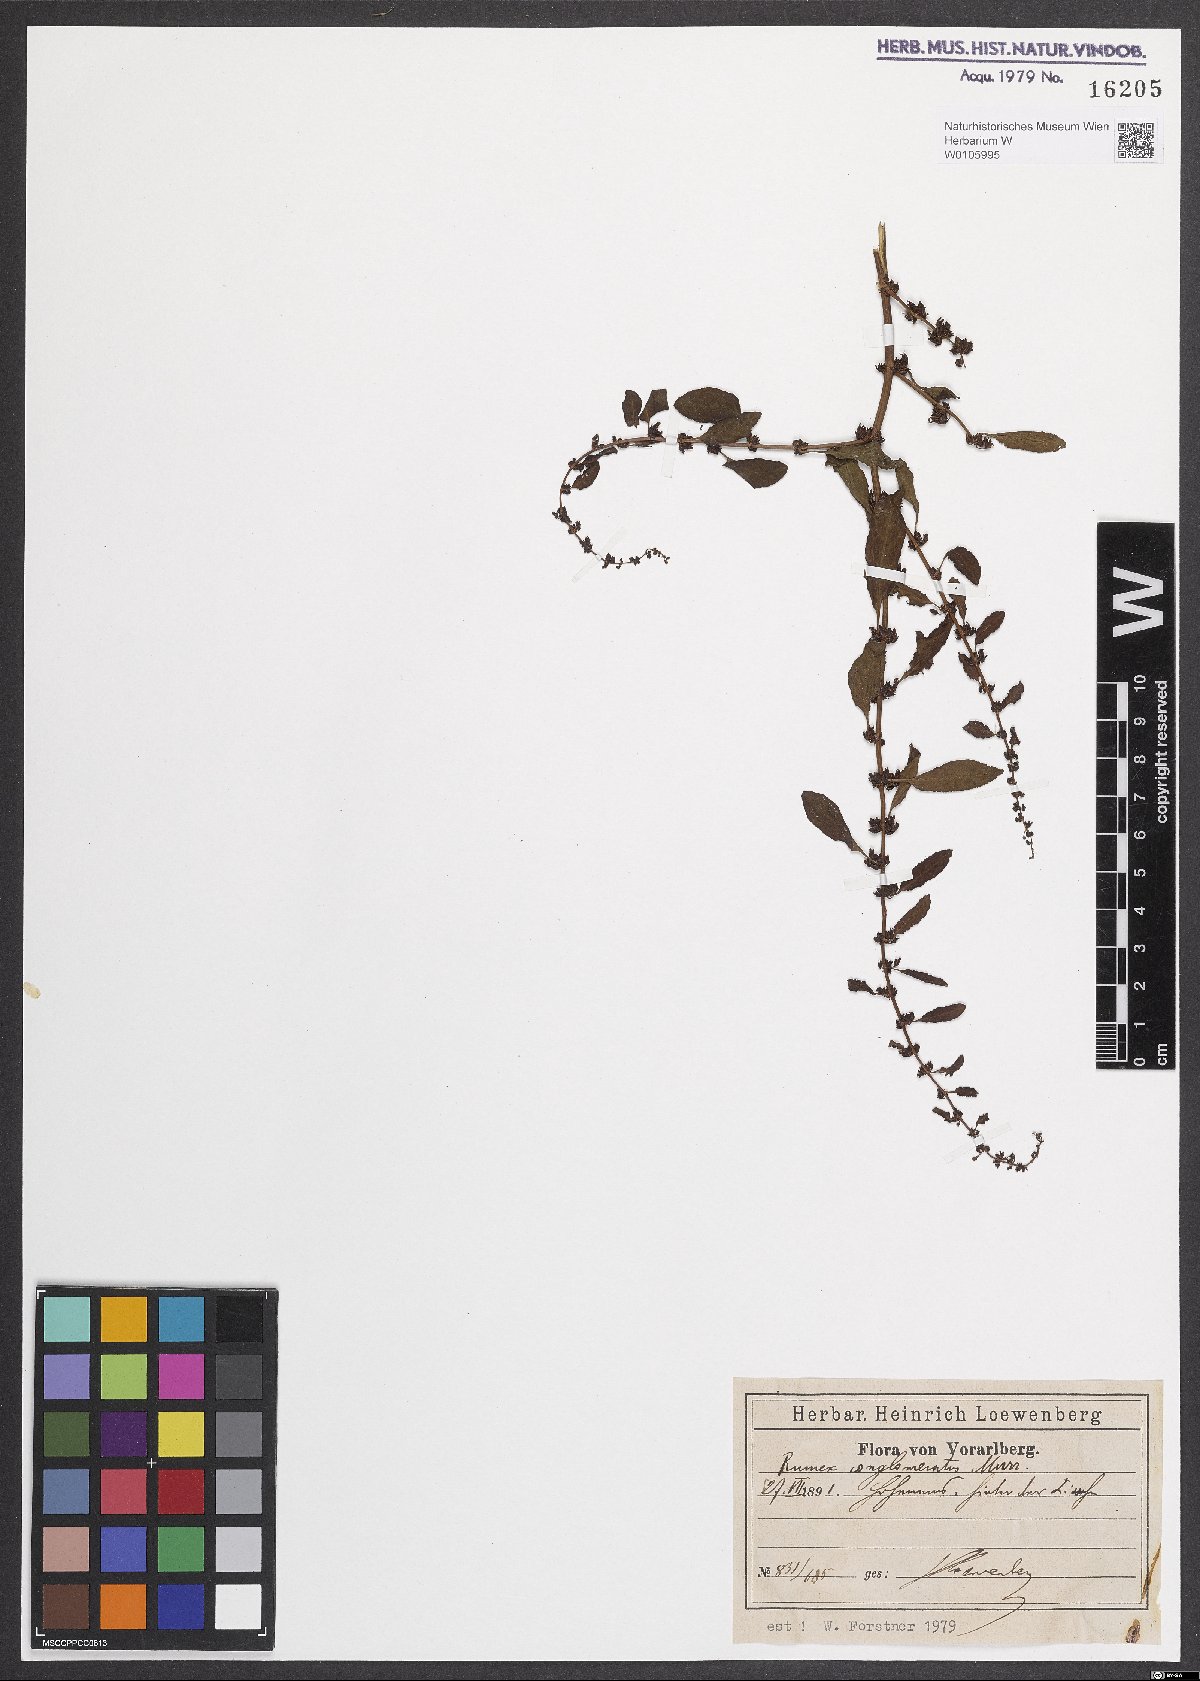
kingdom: Plantae
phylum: Tracheophyta
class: Magnoliopsida
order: Caryophyllales
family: Polygonaceae
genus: Rumex
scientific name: Rumex conglomeratus
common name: Clustered dock
